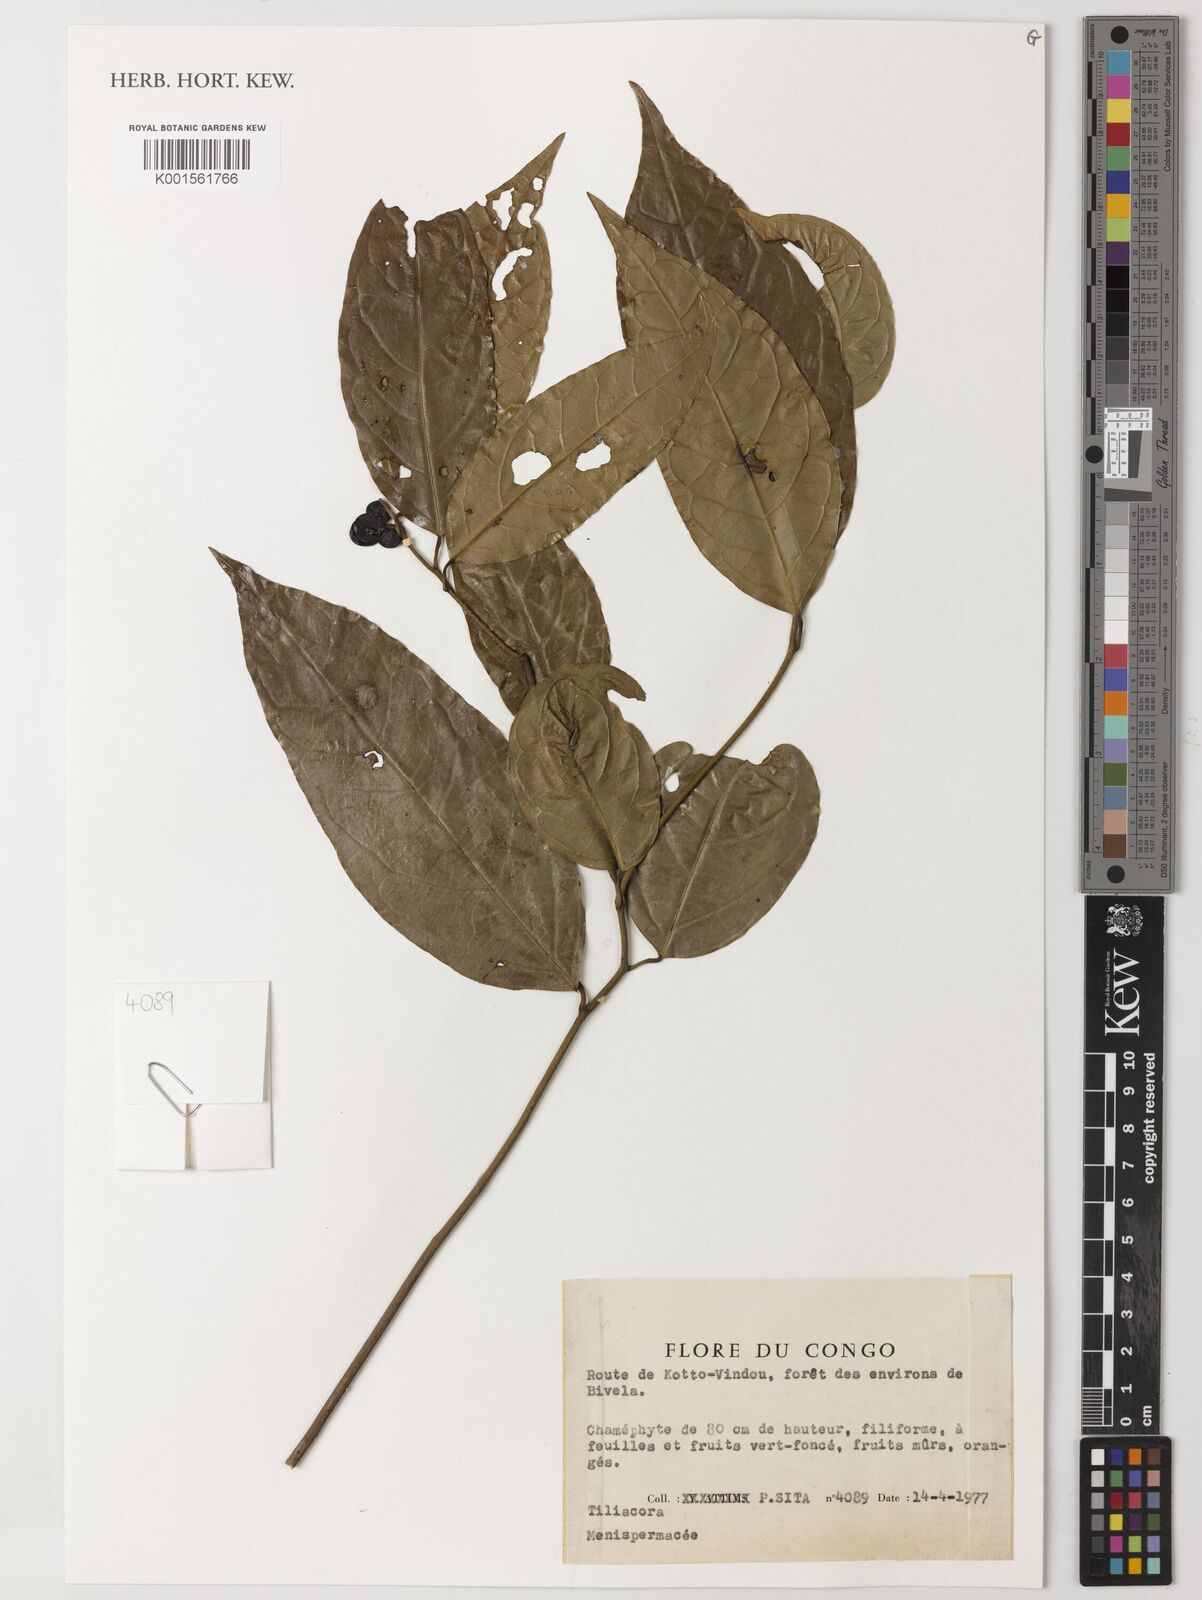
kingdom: Plantae
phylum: Tracheophyta
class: Magnoliopsida
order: Ranunculales
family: Menispermaceae
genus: Tiliacora
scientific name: Tiliacora
